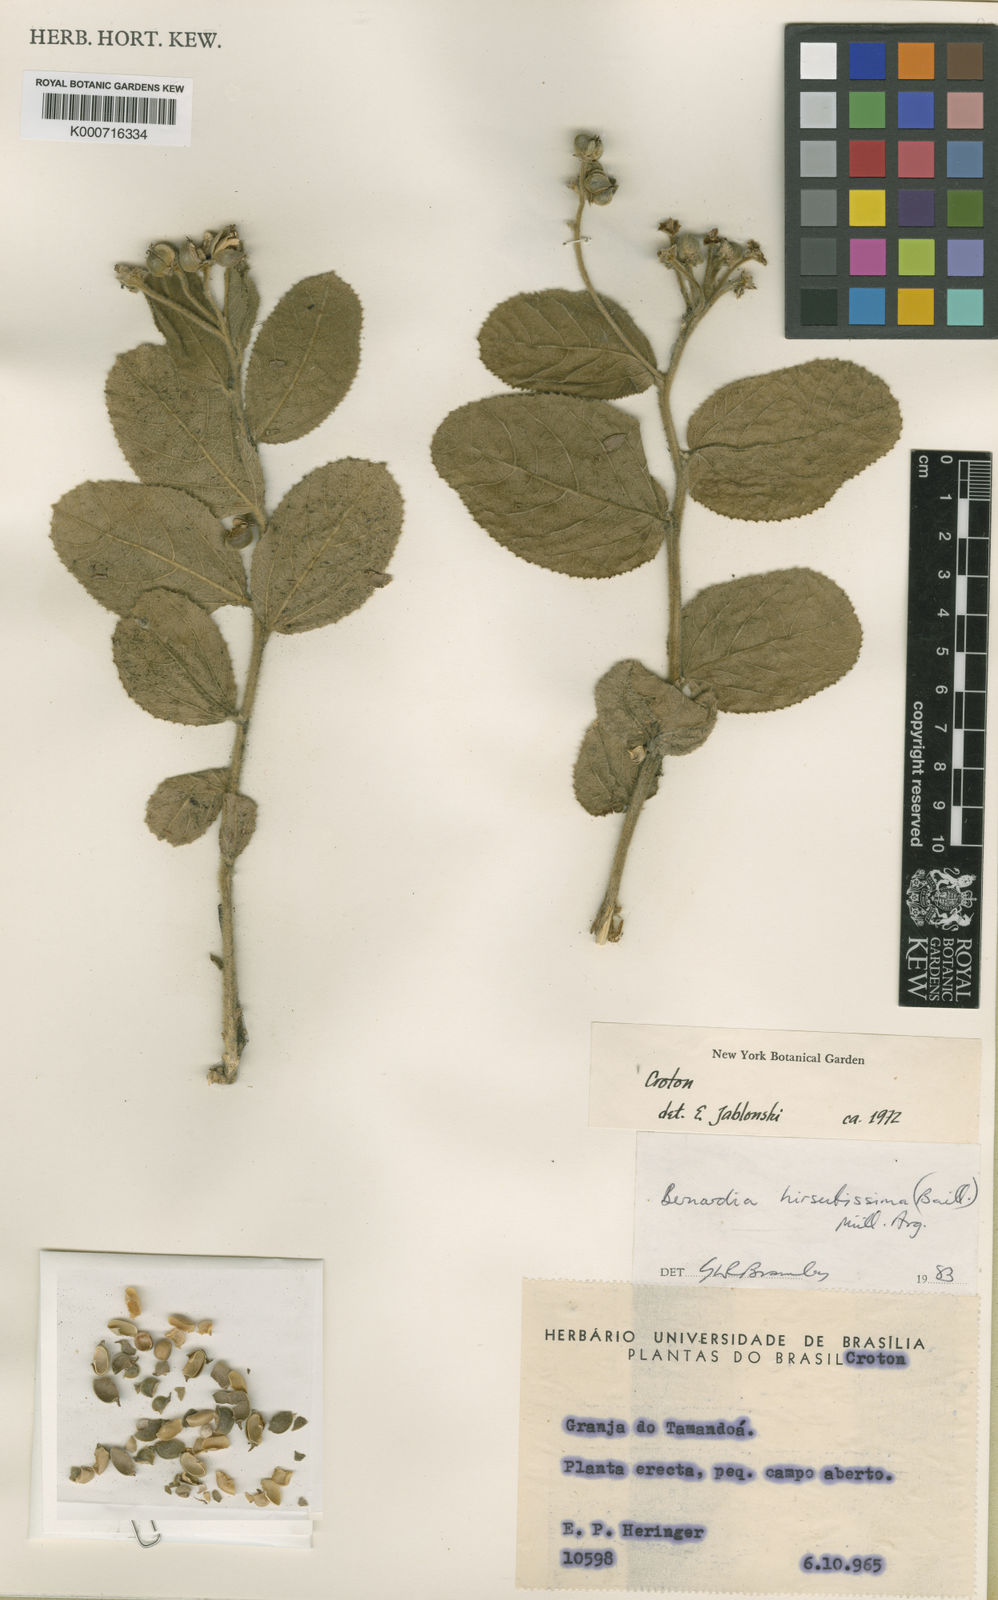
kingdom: Plantae
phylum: Tracheophyta
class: Magnoliopsida
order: Malpighiales
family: Euphorbiaceae
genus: Bernardia
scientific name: Bernardia
